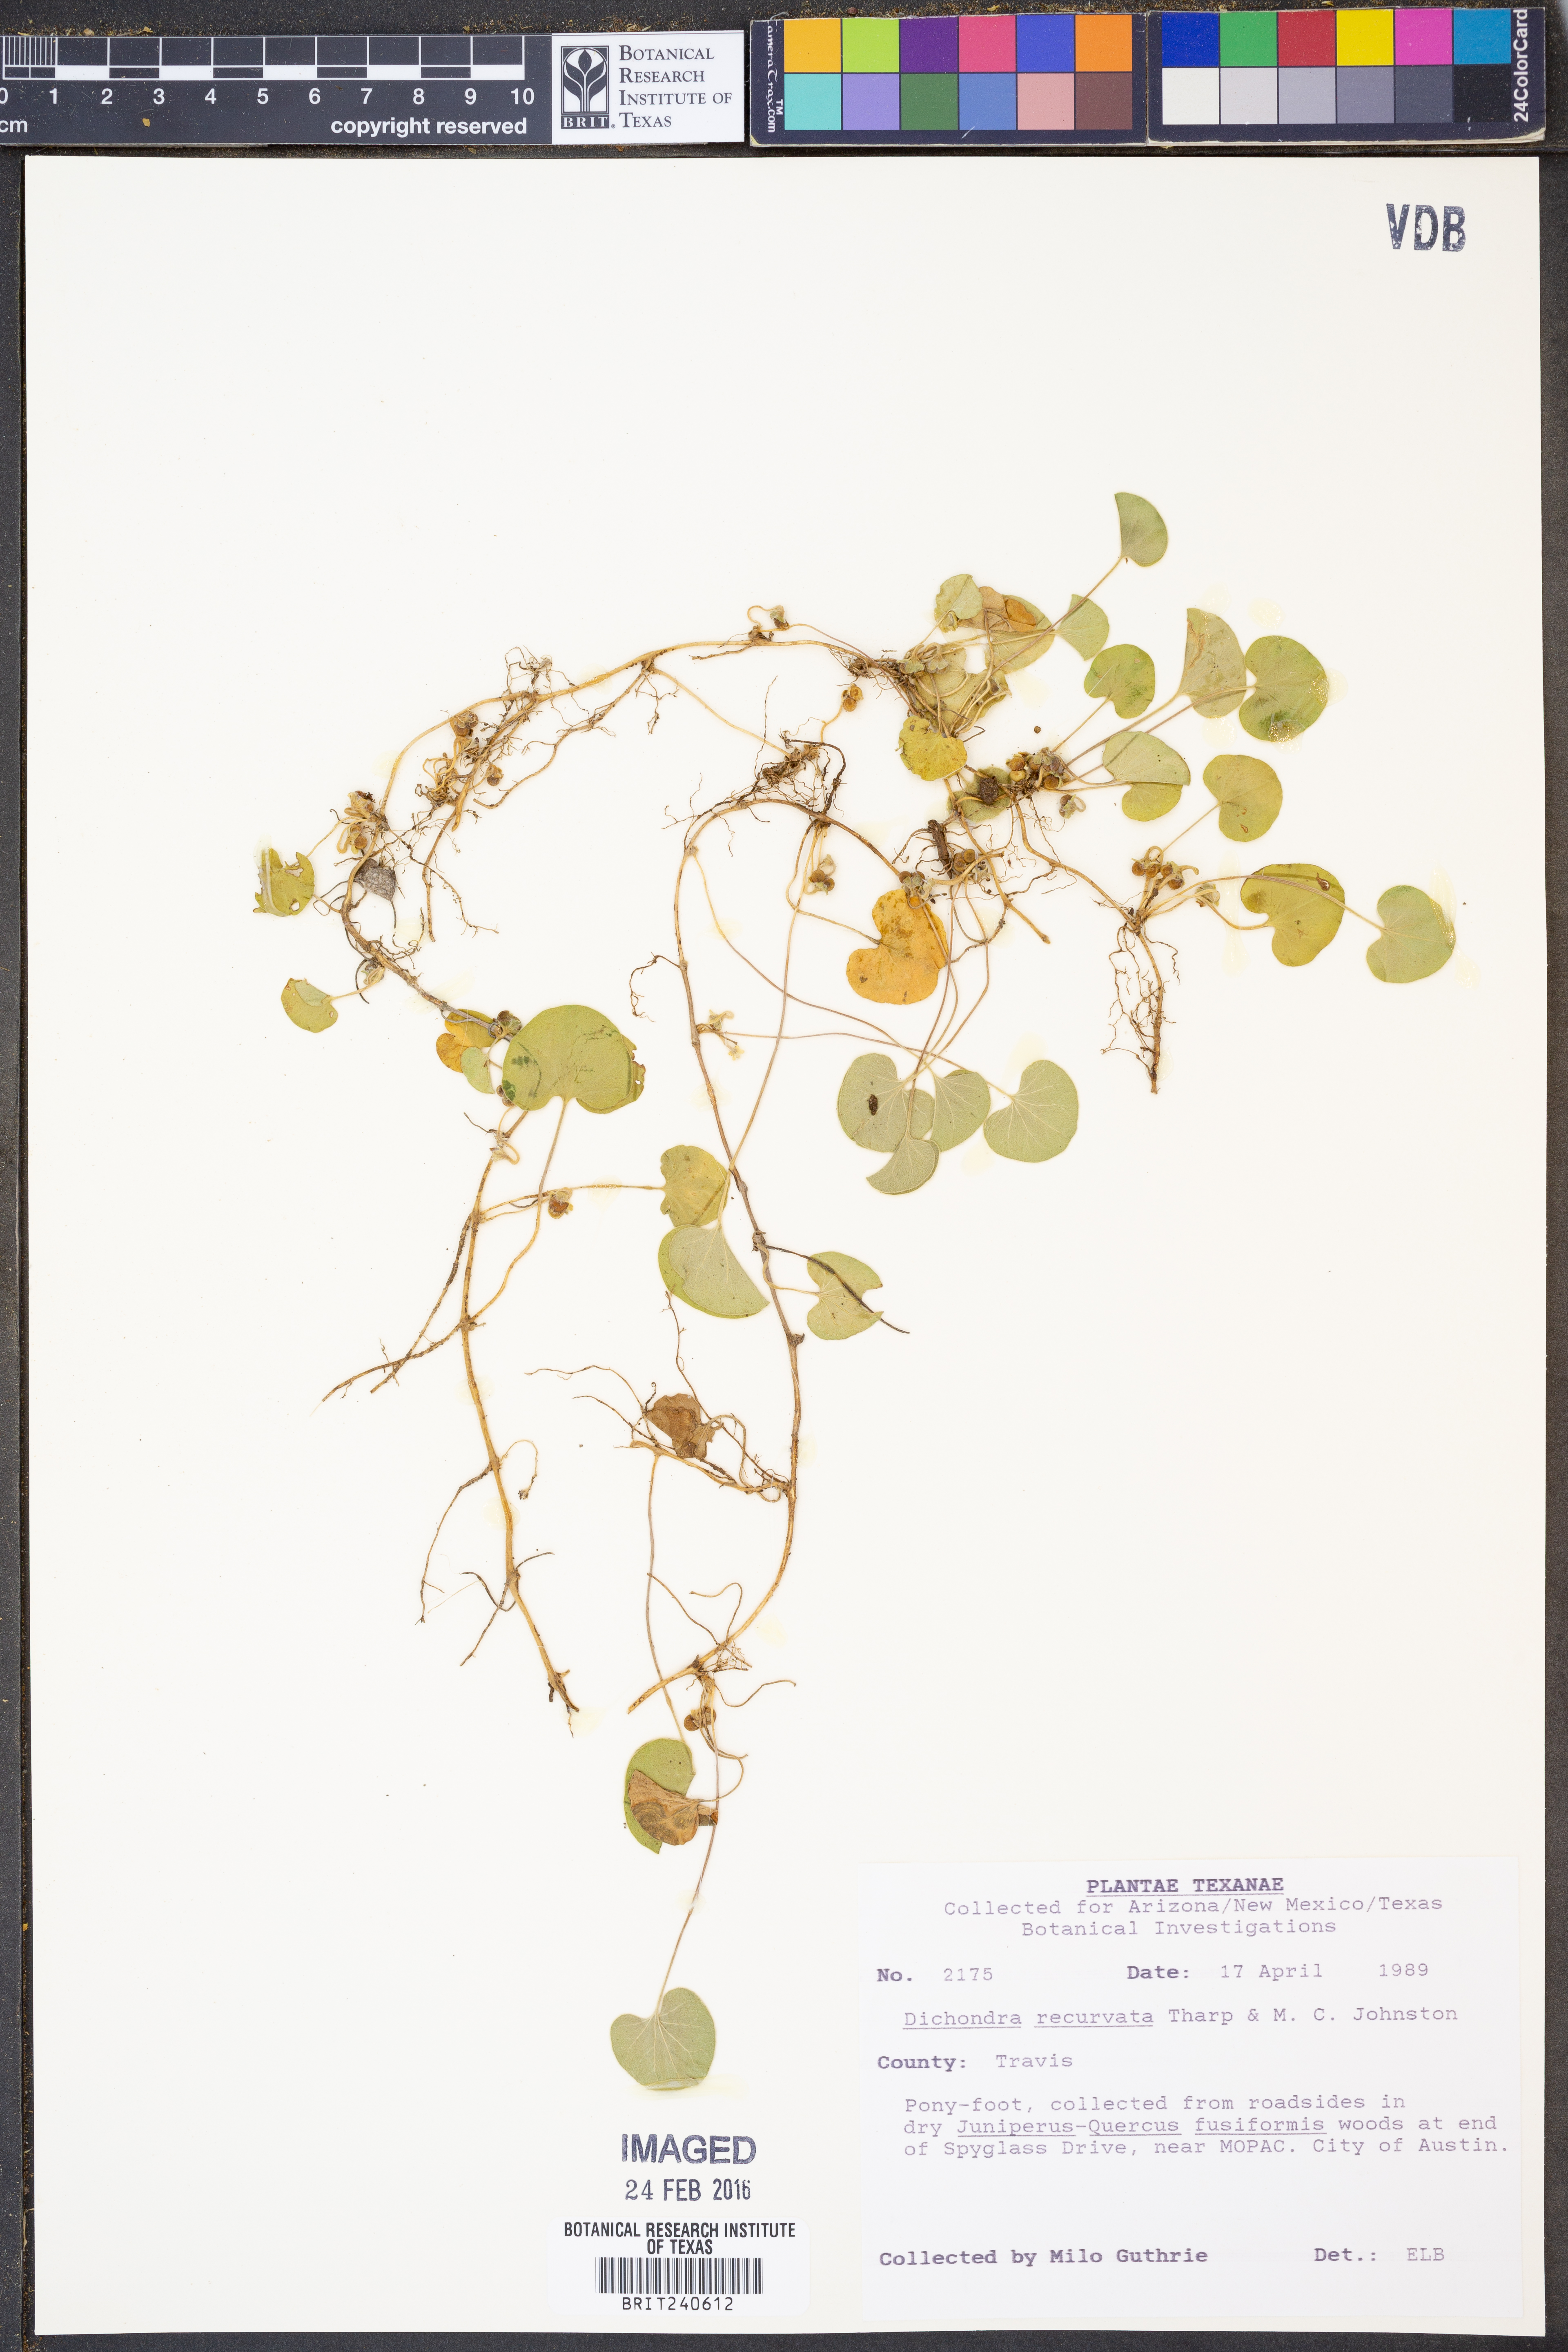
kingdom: Plantae
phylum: Tracheophyta
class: Magnoliopsida
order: Solanales
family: Convolvulaceae
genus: Dichondra
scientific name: Dichondra recurvata
